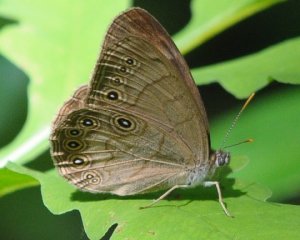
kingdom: Animalia
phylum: Arthropoda
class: Insecta
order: Lepidoptera
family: Nymphalidae
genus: Lethe
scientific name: Lethe eurydice
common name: Appalachian Eyed Brown
